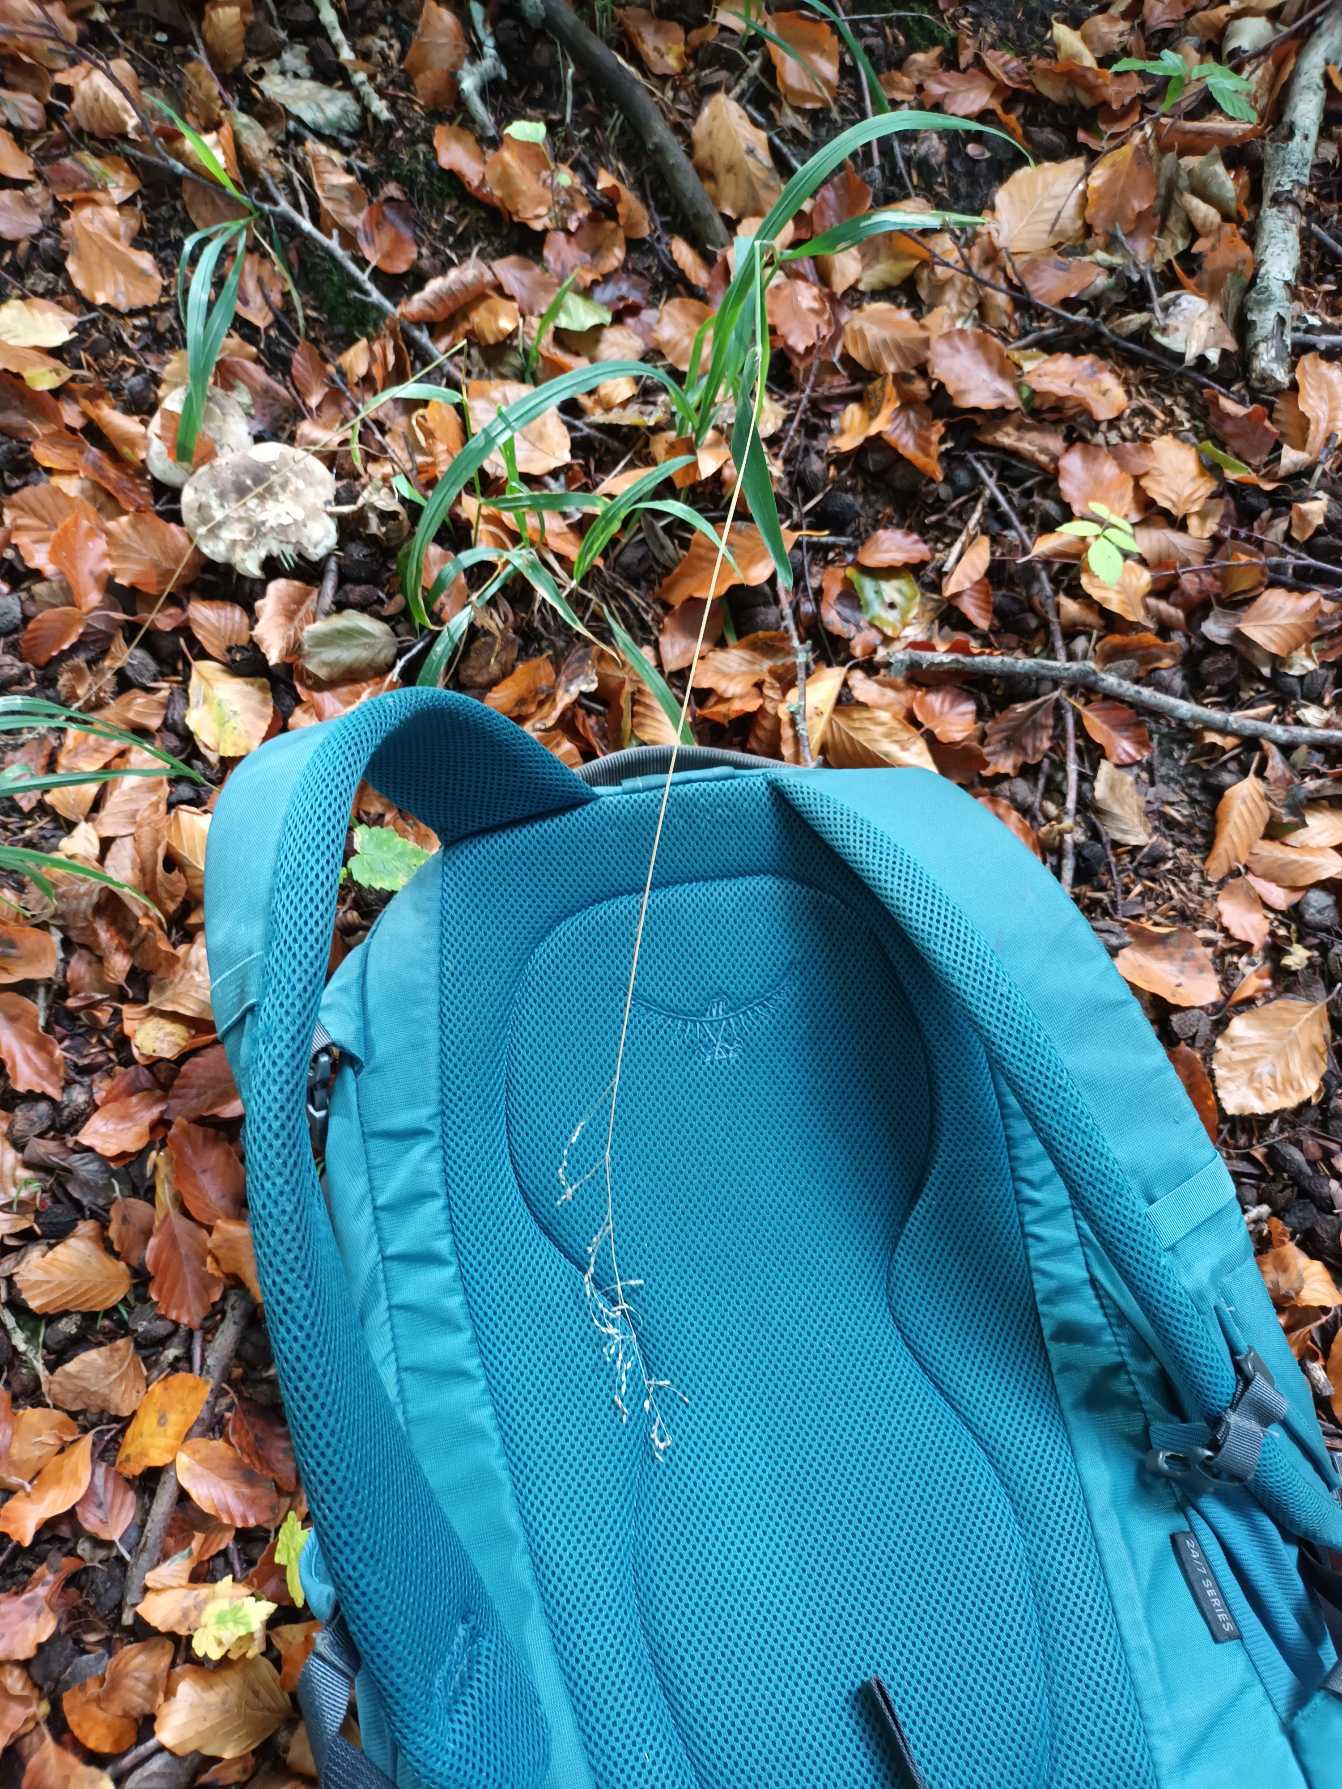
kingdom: Plantae
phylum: Tracheophyta
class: Liliopsida
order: Poales
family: Poaceae
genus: Milium
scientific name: Milium effusum
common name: Miliegræs
